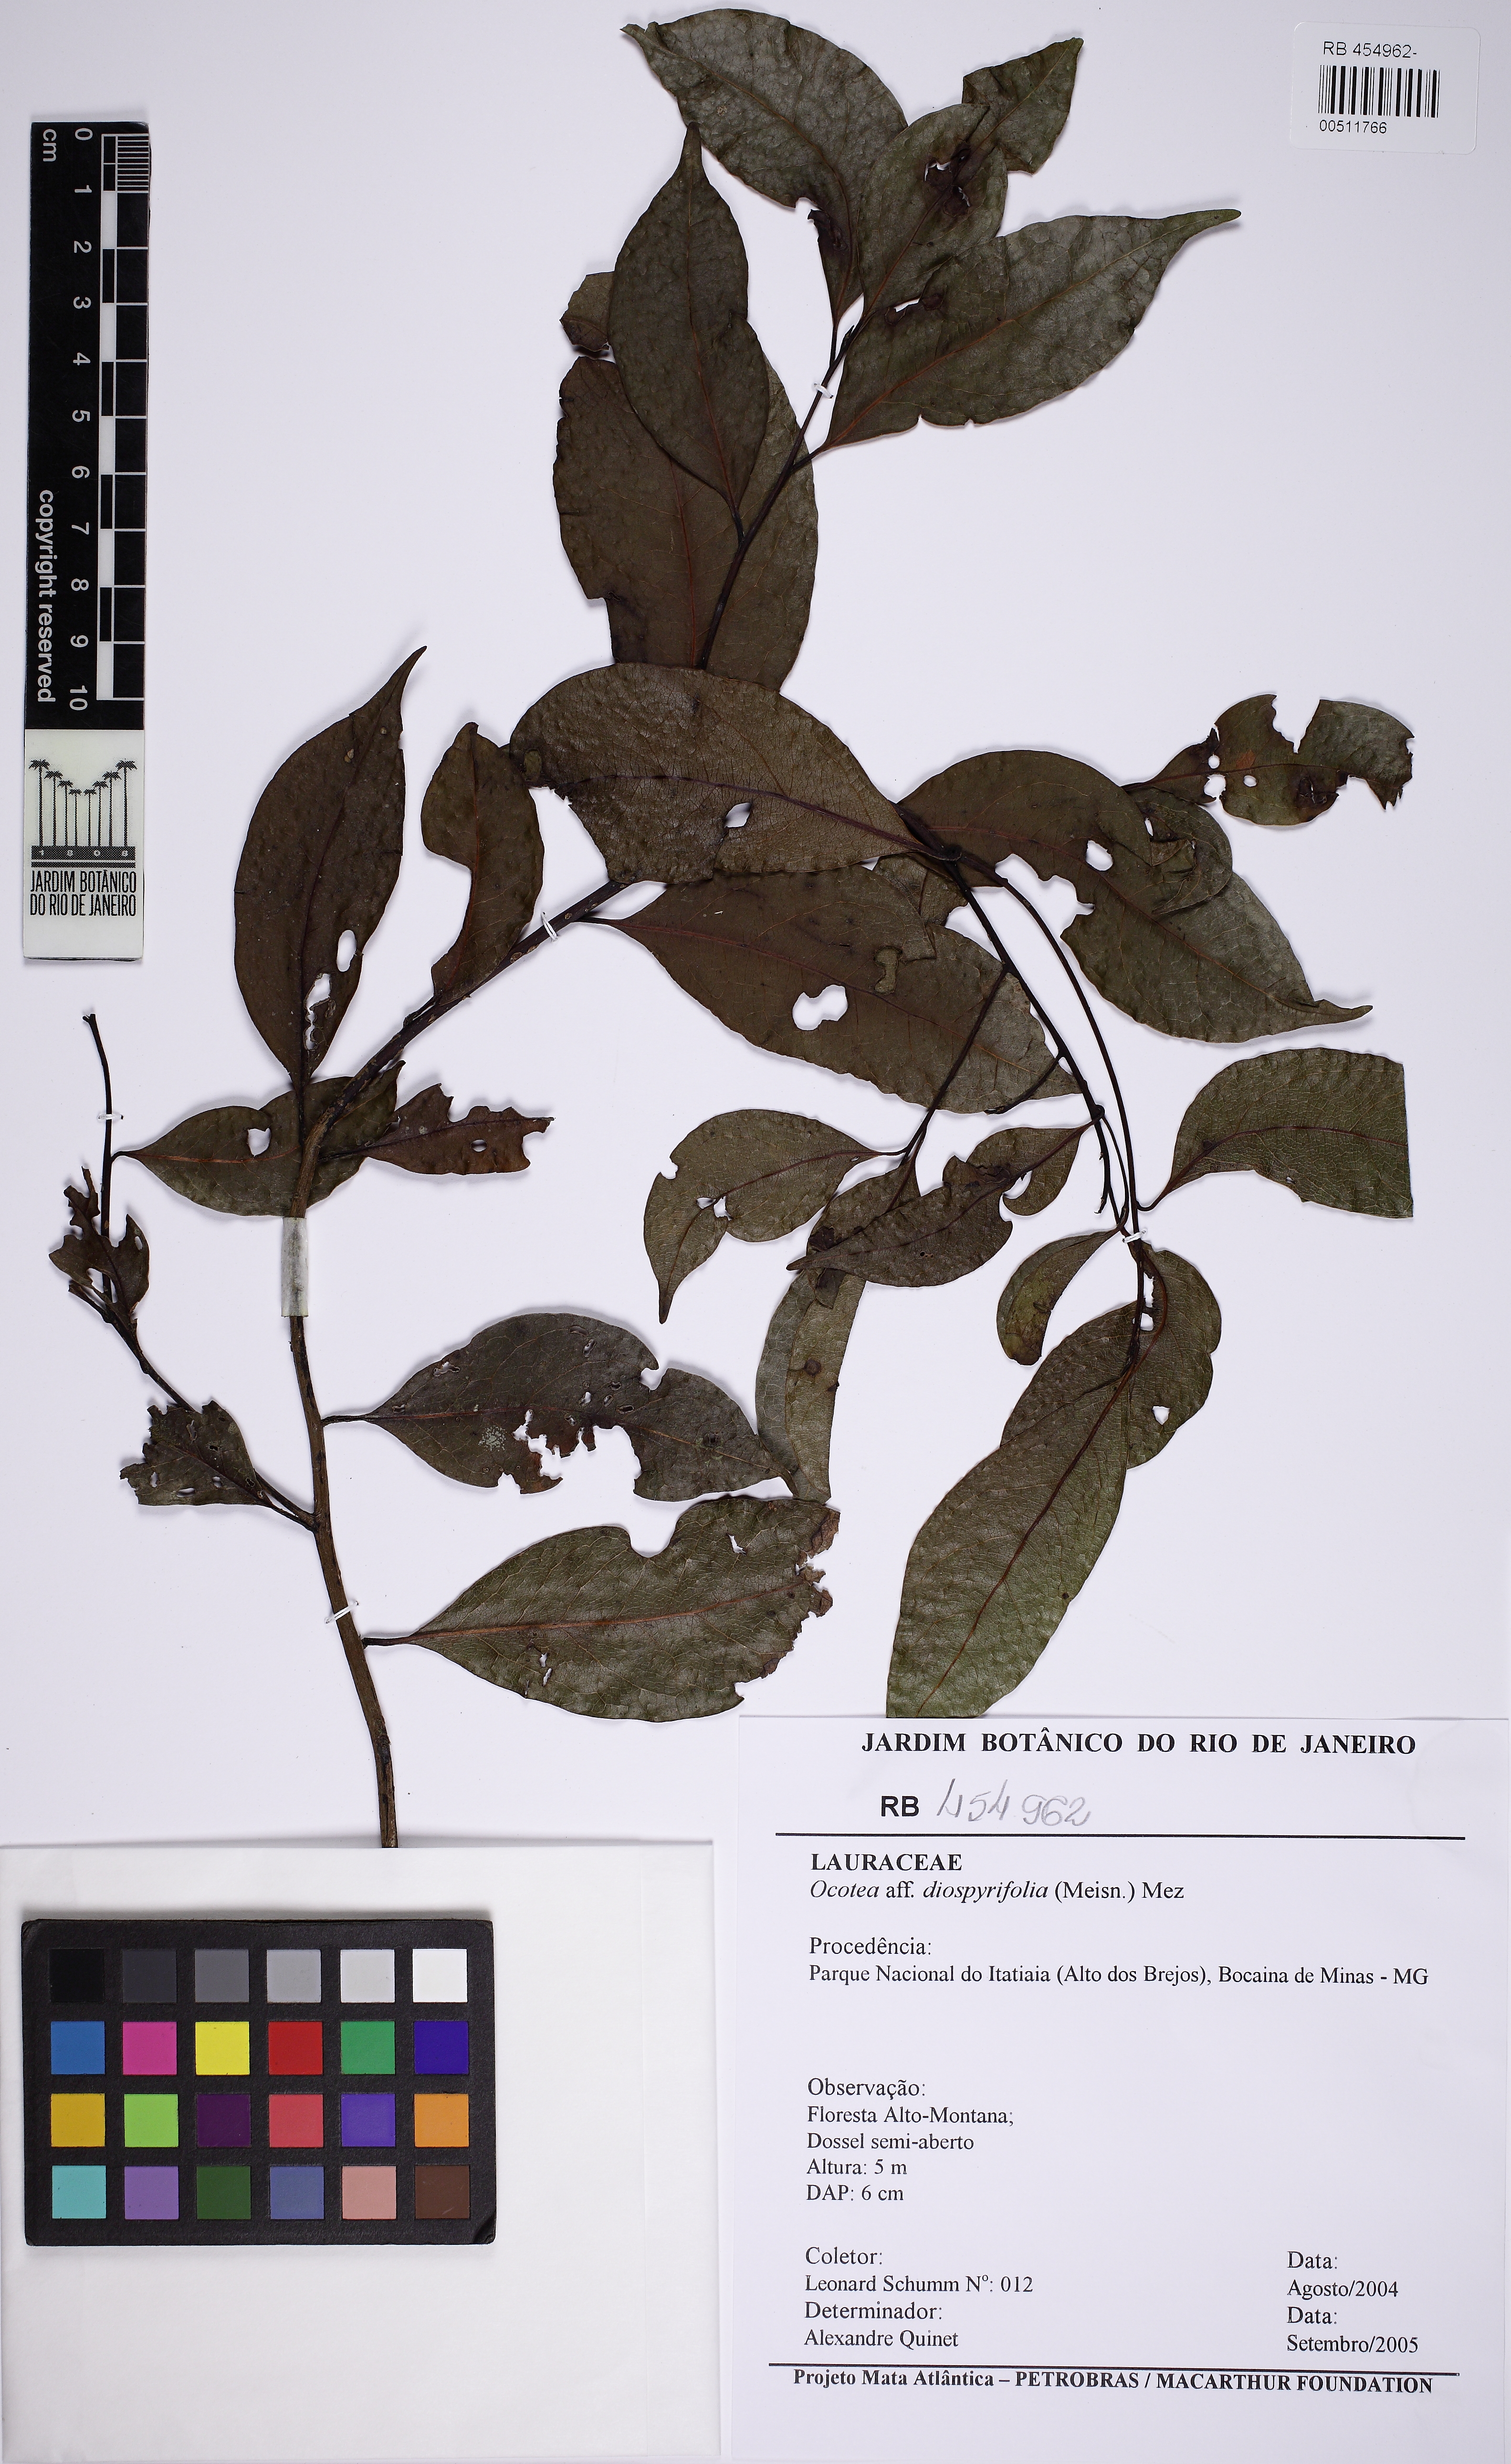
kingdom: Plantae
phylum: Tracheophyta
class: Magnoliopsida
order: Laurales
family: Lauraceae
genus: Ocotea
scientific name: Ocotea diospyrifolia
